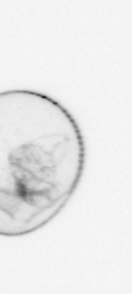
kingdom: Chromista
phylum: Myzozoa
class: Dinophyceae
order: Noctilucales
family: Noctilucaceae
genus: Noctiluca
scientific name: Noctiluca scintillans
